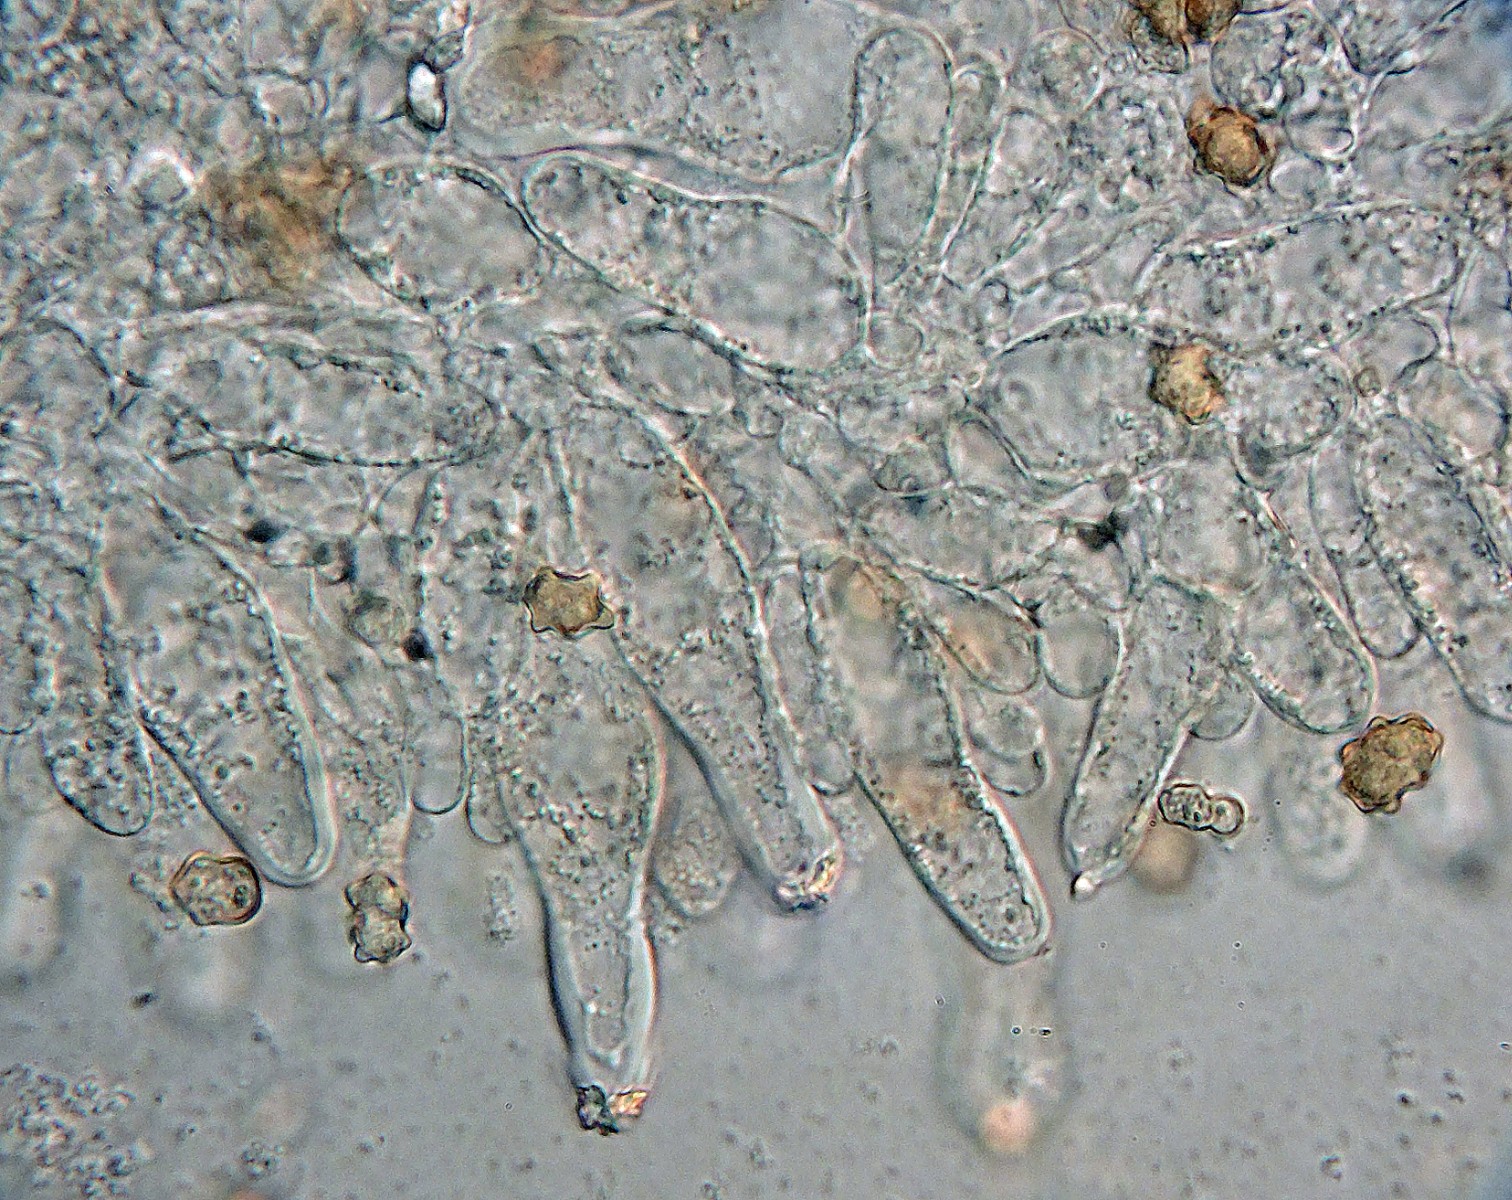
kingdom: Fungi
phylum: Basidiomycota
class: Agaricomycetes
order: Agaricales
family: Inocybaceae
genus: Inocybe
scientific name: Inocybe putilla
